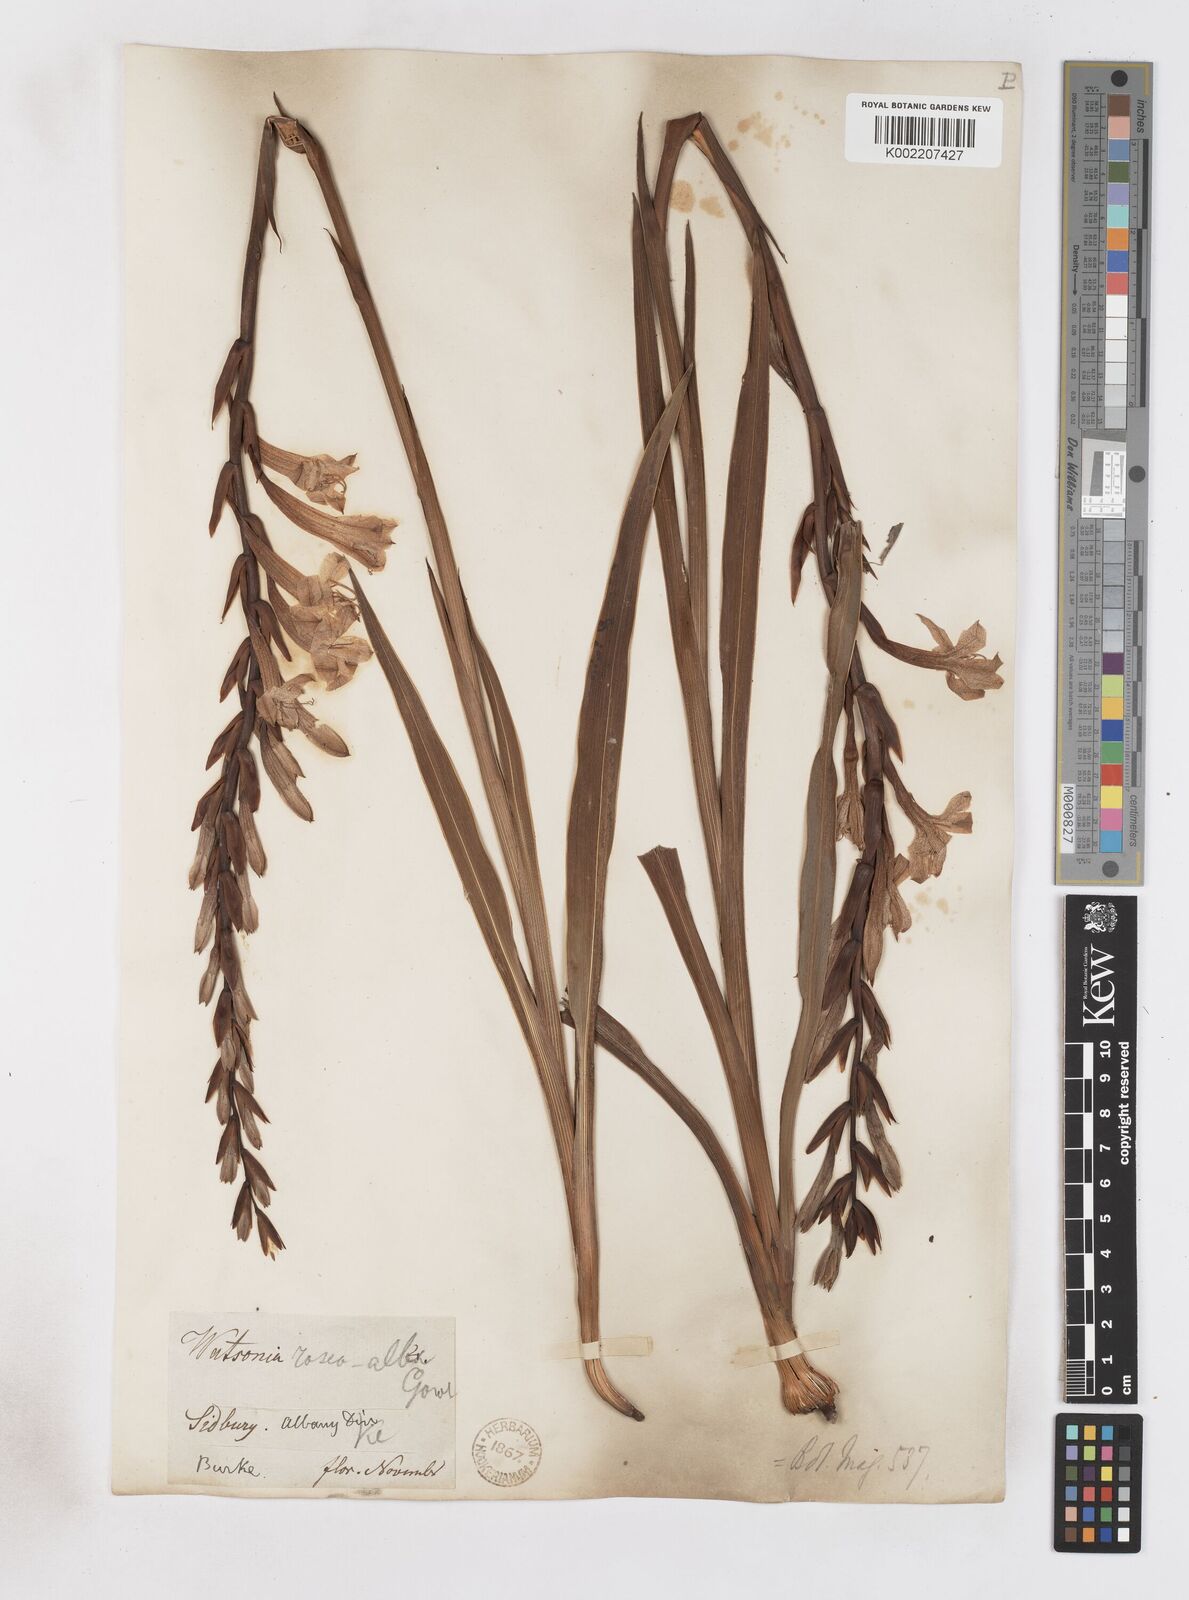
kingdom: Plantae
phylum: Tracheophyta
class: Liliopsida
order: Asparagales
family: Iridaceae
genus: Watsonia
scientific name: Watsonia pillansii
